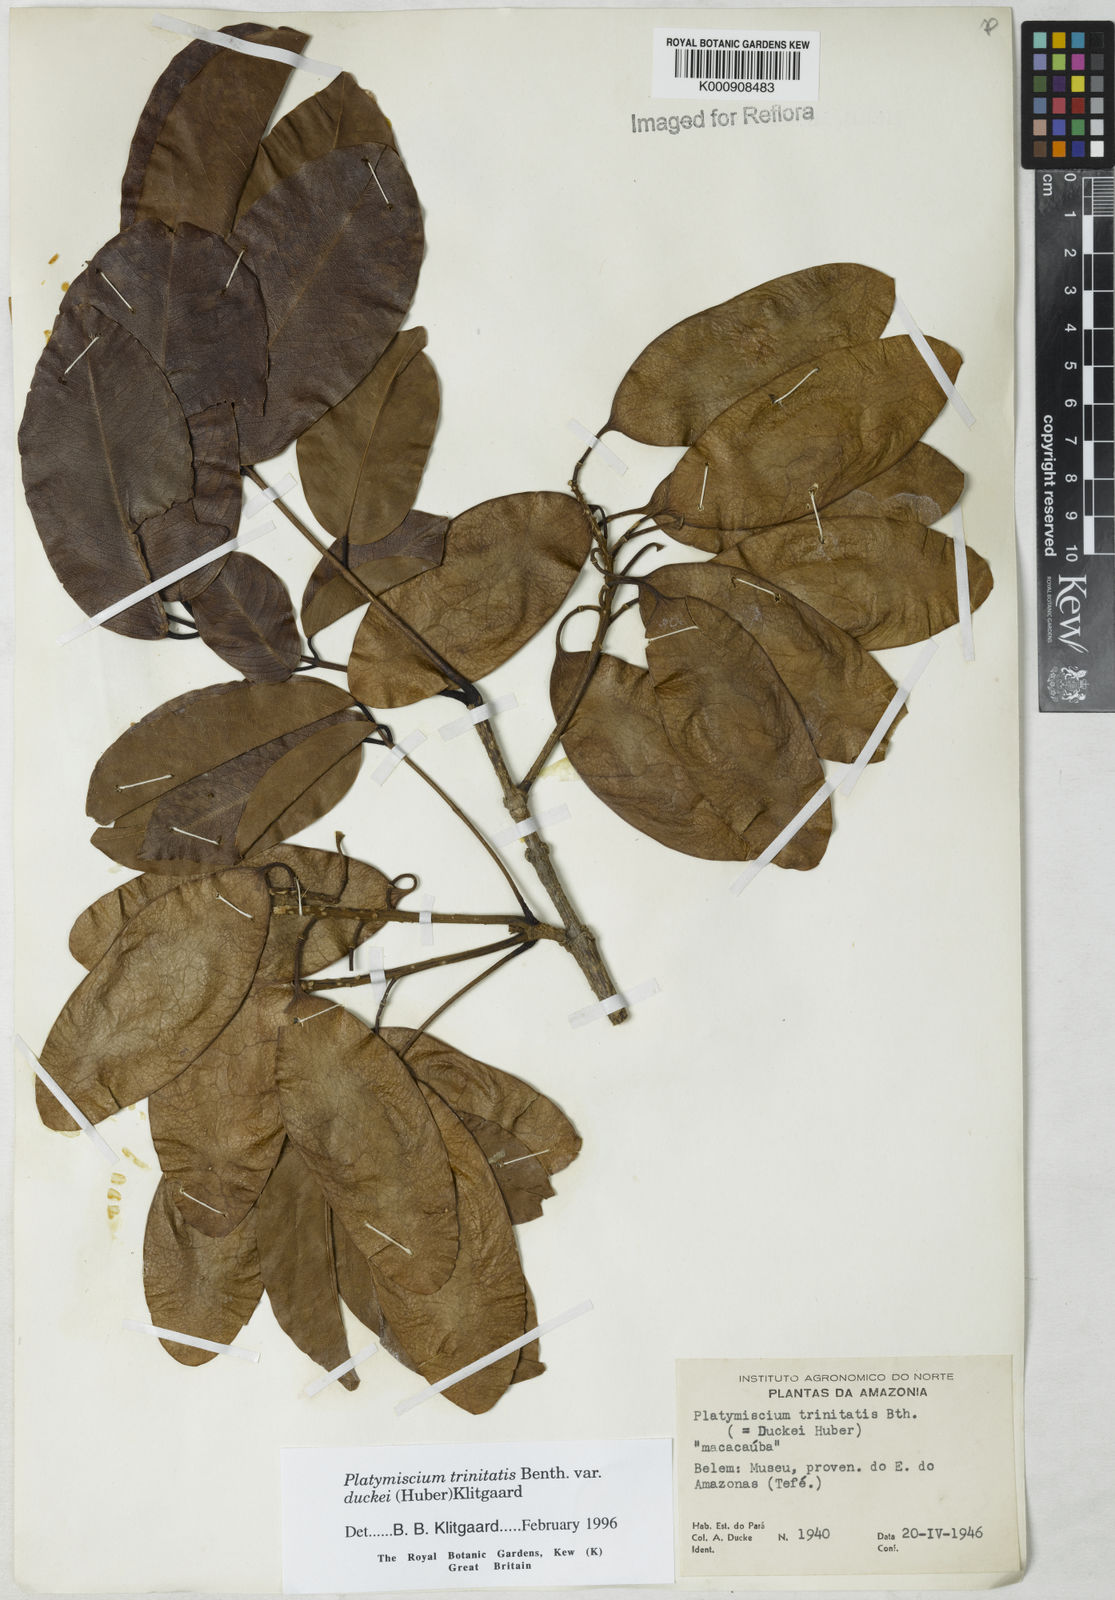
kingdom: Plantae
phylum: Tracheophyta
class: Magnoliopsida
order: Fabales
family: Fabaceae
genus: Platymiscium
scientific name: Platymiscium trinitatis
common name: Trinidad macawood
